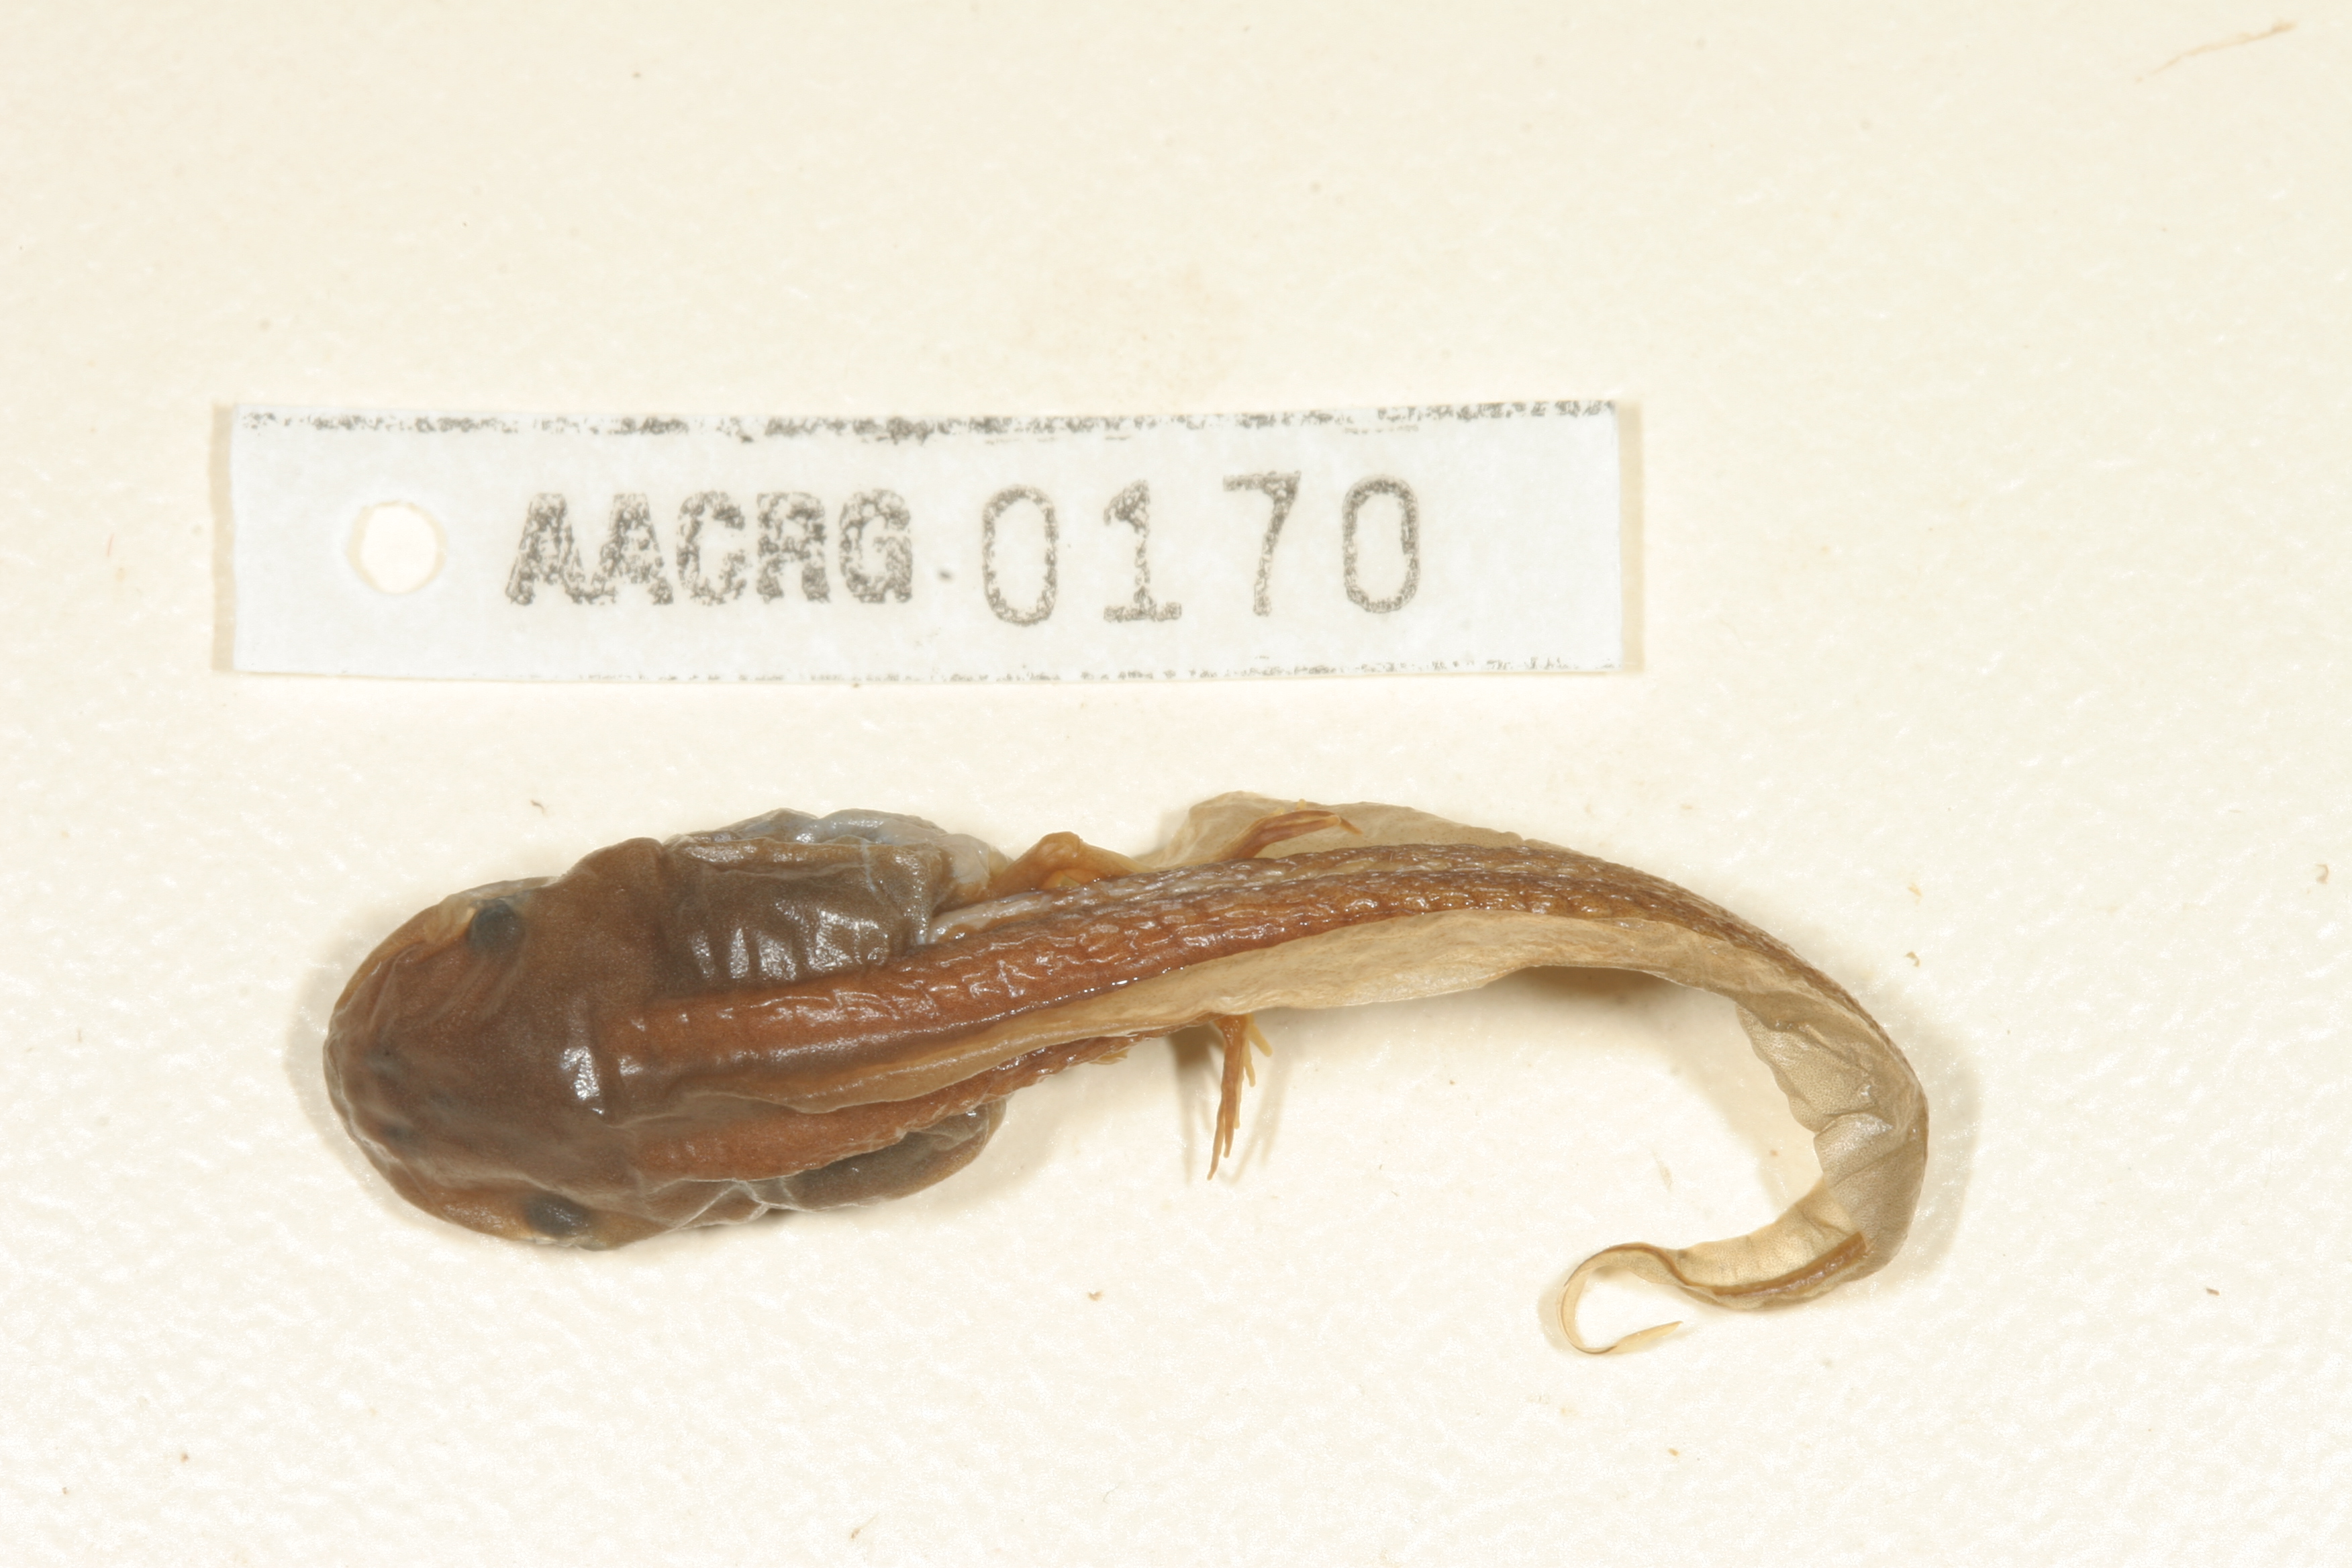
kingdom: Animalia
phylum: Chordata
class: Amphibia
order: Anura
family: Hyperoliidae
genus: Semnodactylus
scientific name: Semnodactylus wealii
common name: Weal's frog
